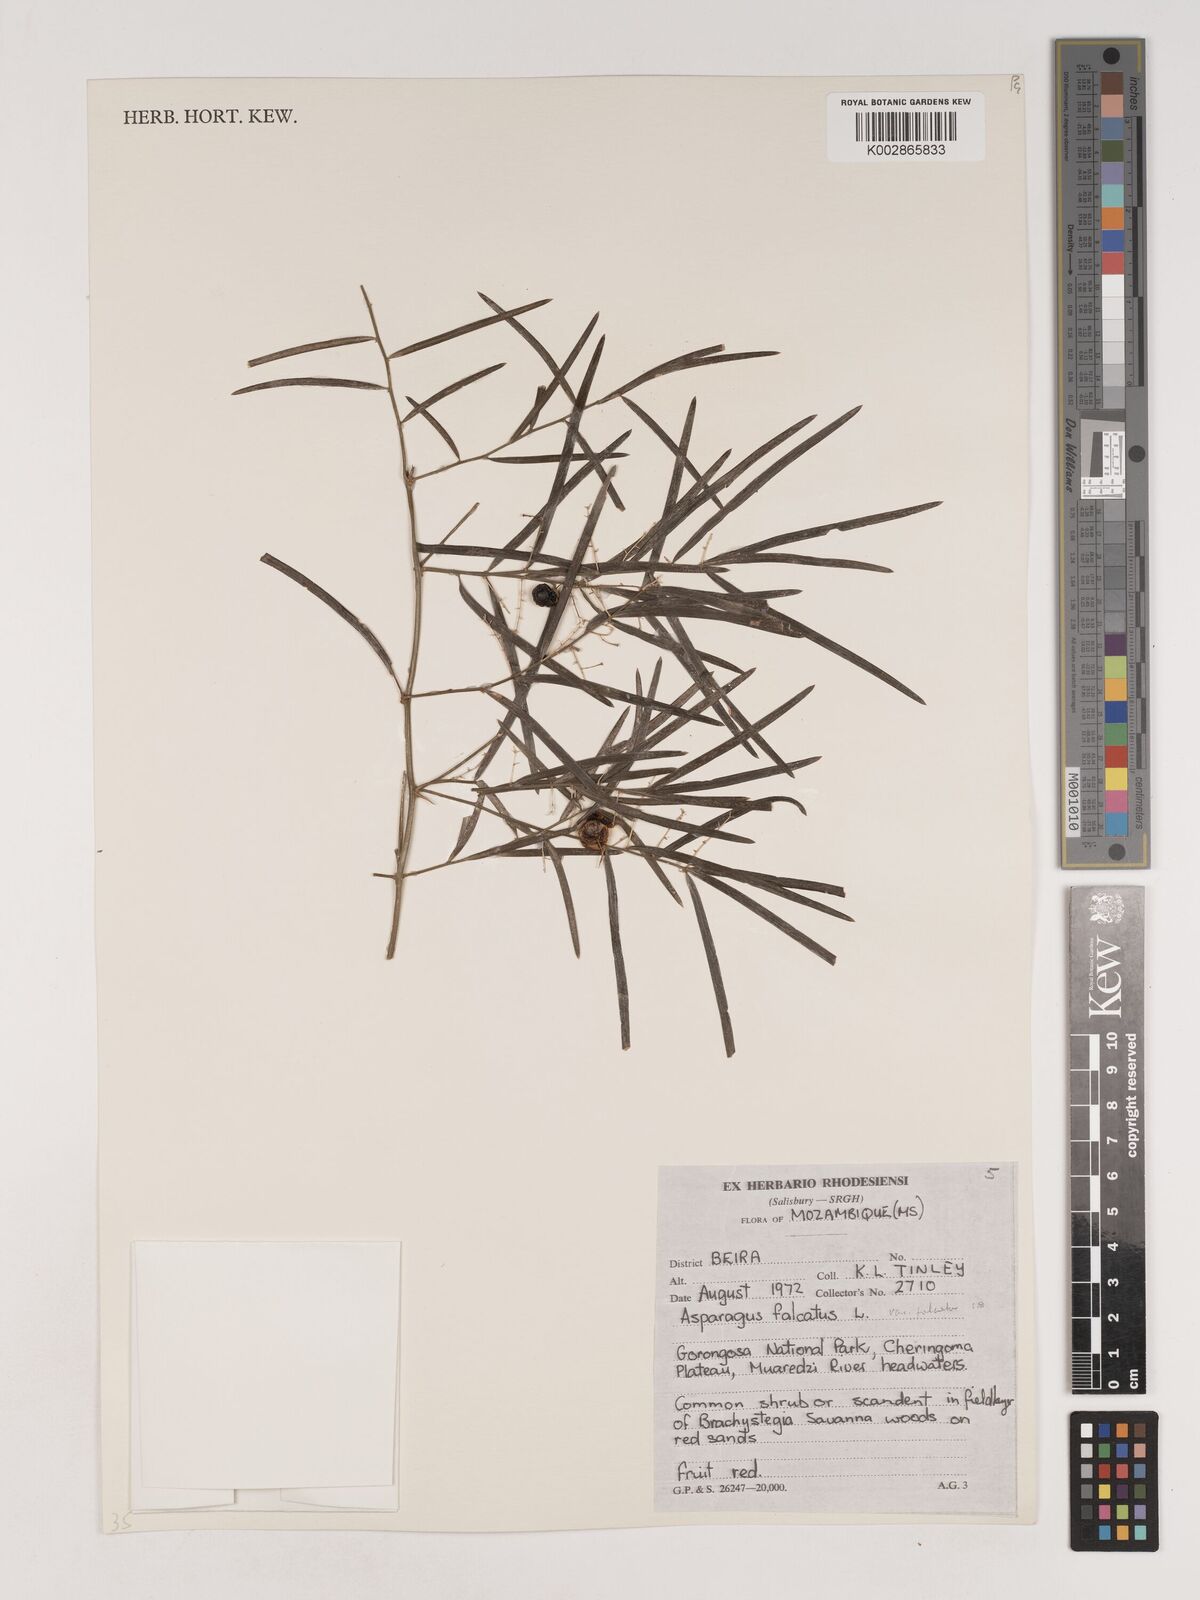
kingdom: Plantae
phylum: Tracheophyta
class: Liliopsida
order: Asparagales
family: Asparagaceae
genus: Asparagus
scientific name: Asparagus falcatus
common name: Asparagus
